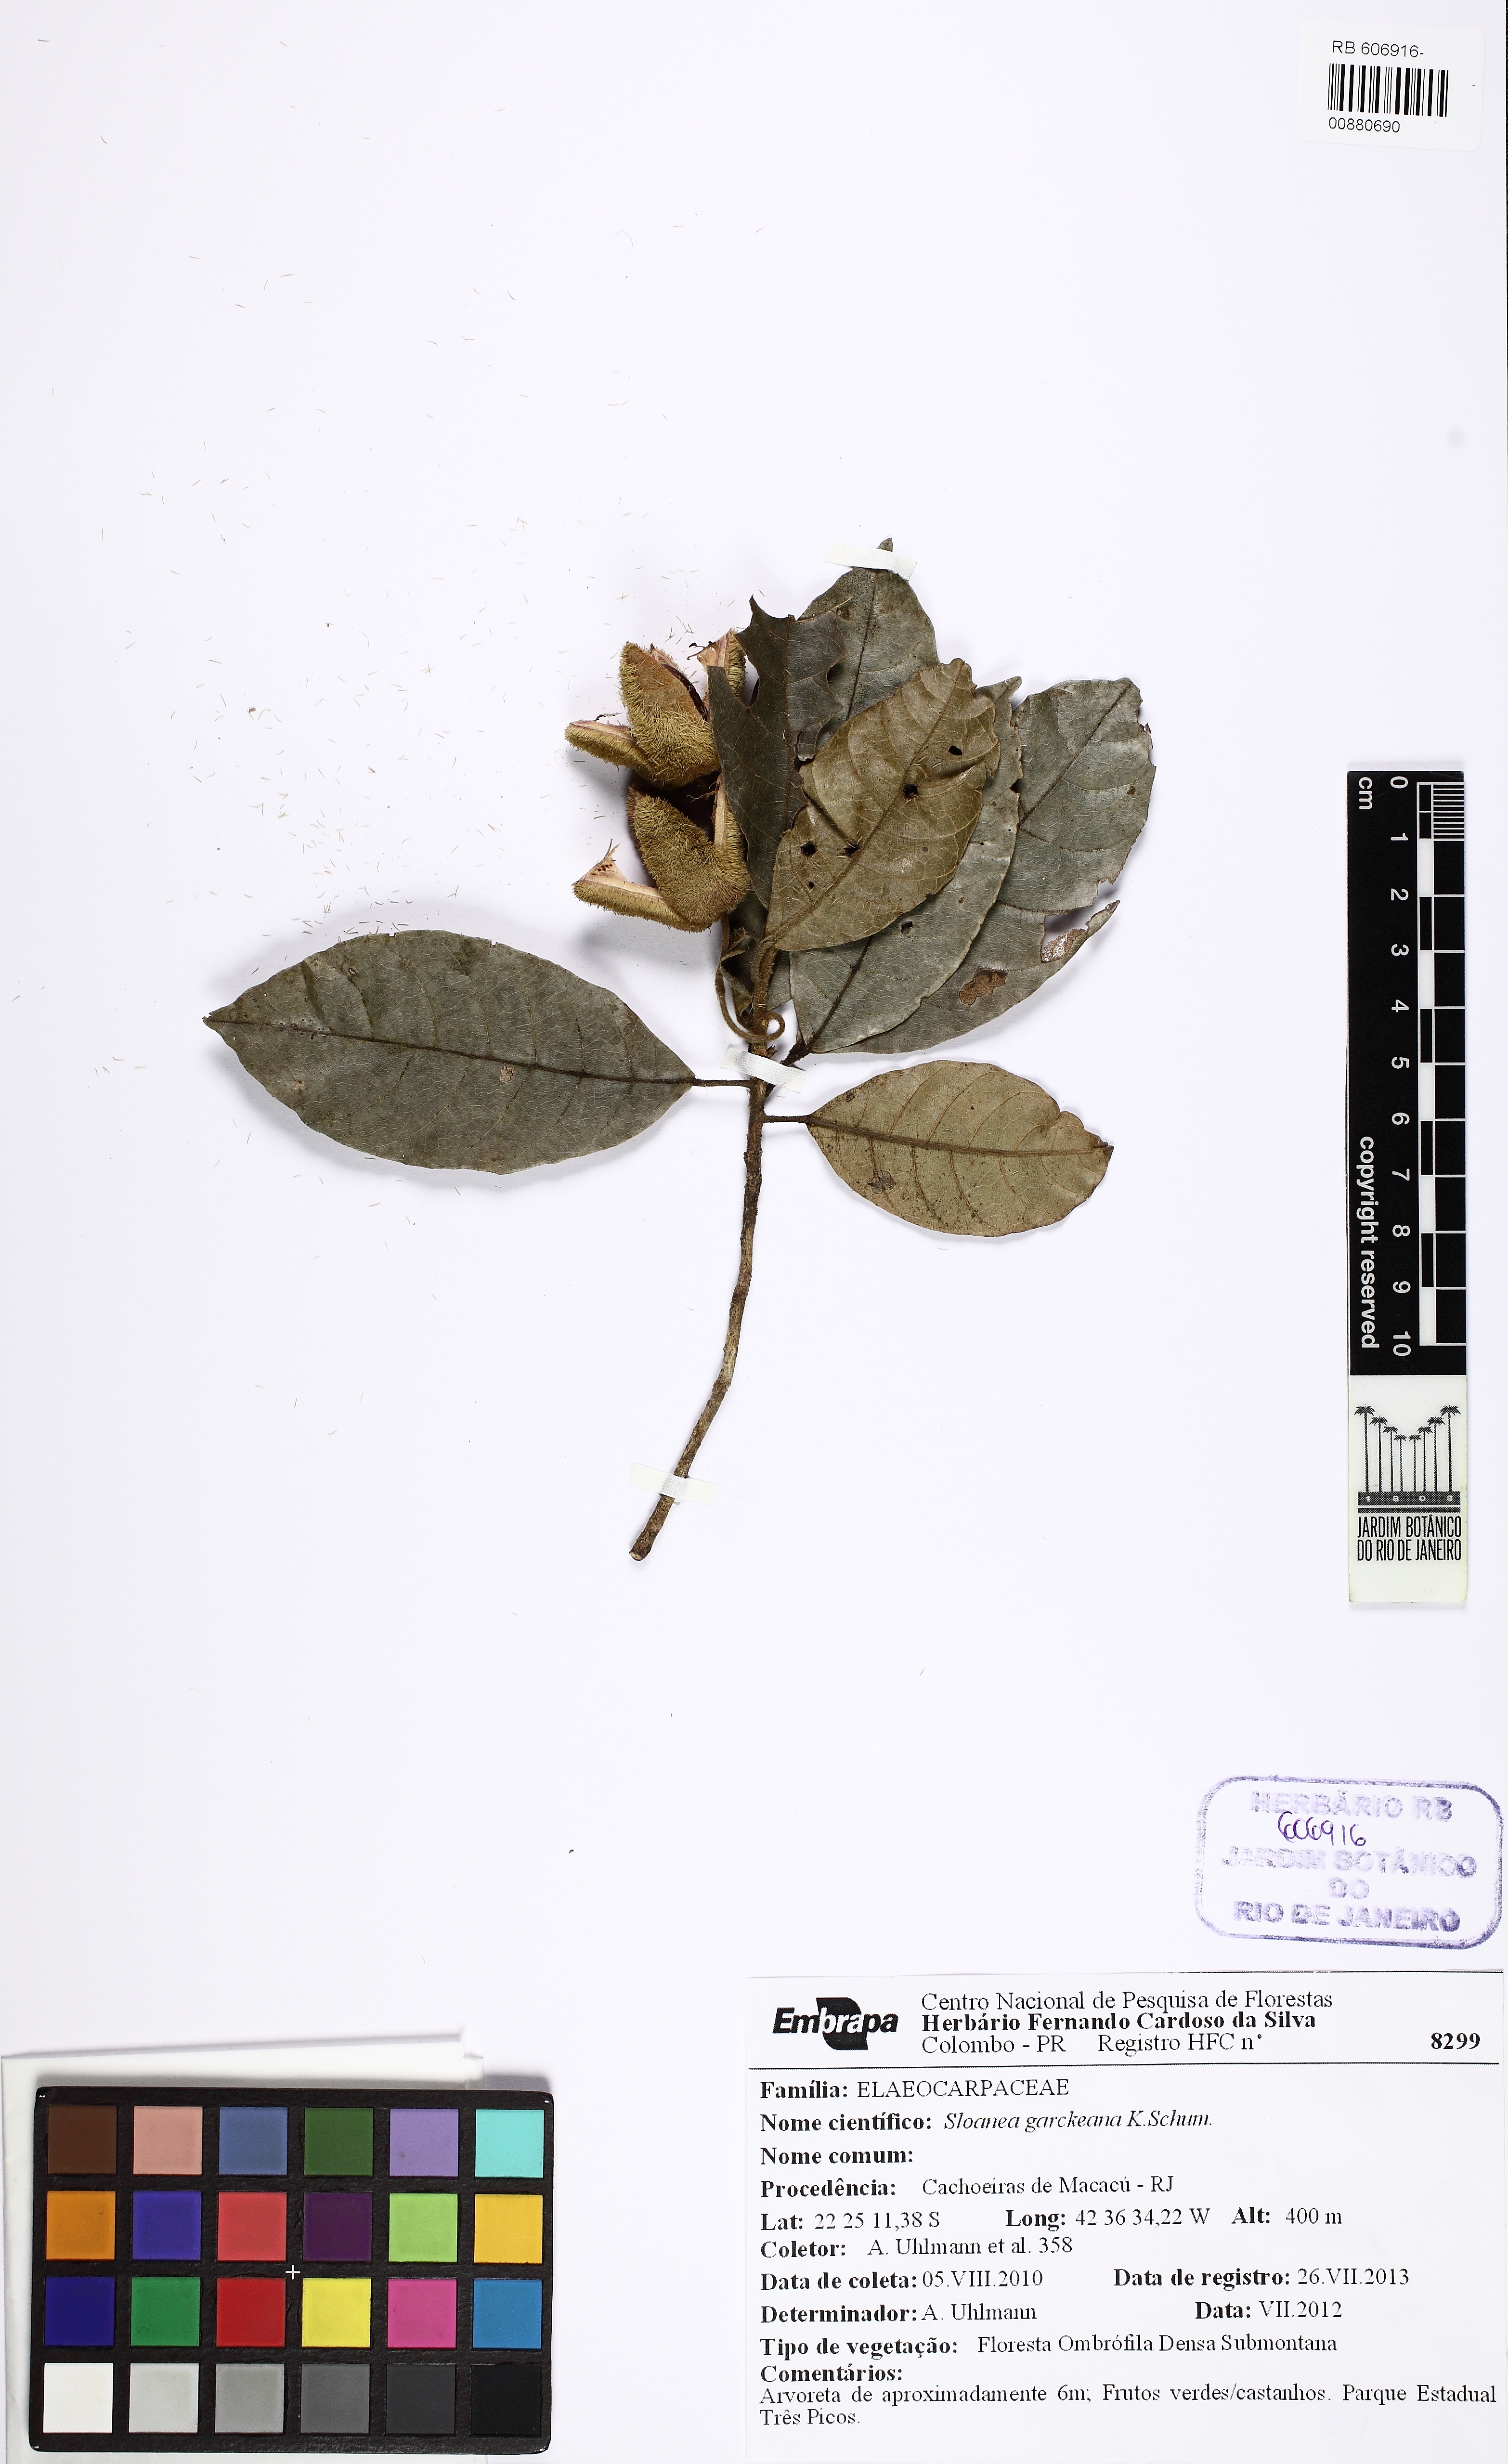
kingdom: Plantae
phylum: Tracheophyta
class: Magnoliopsida
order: Oxalidales
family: Elaeocarpaceae
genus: Sloanea
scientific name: Sloanea garckeana
